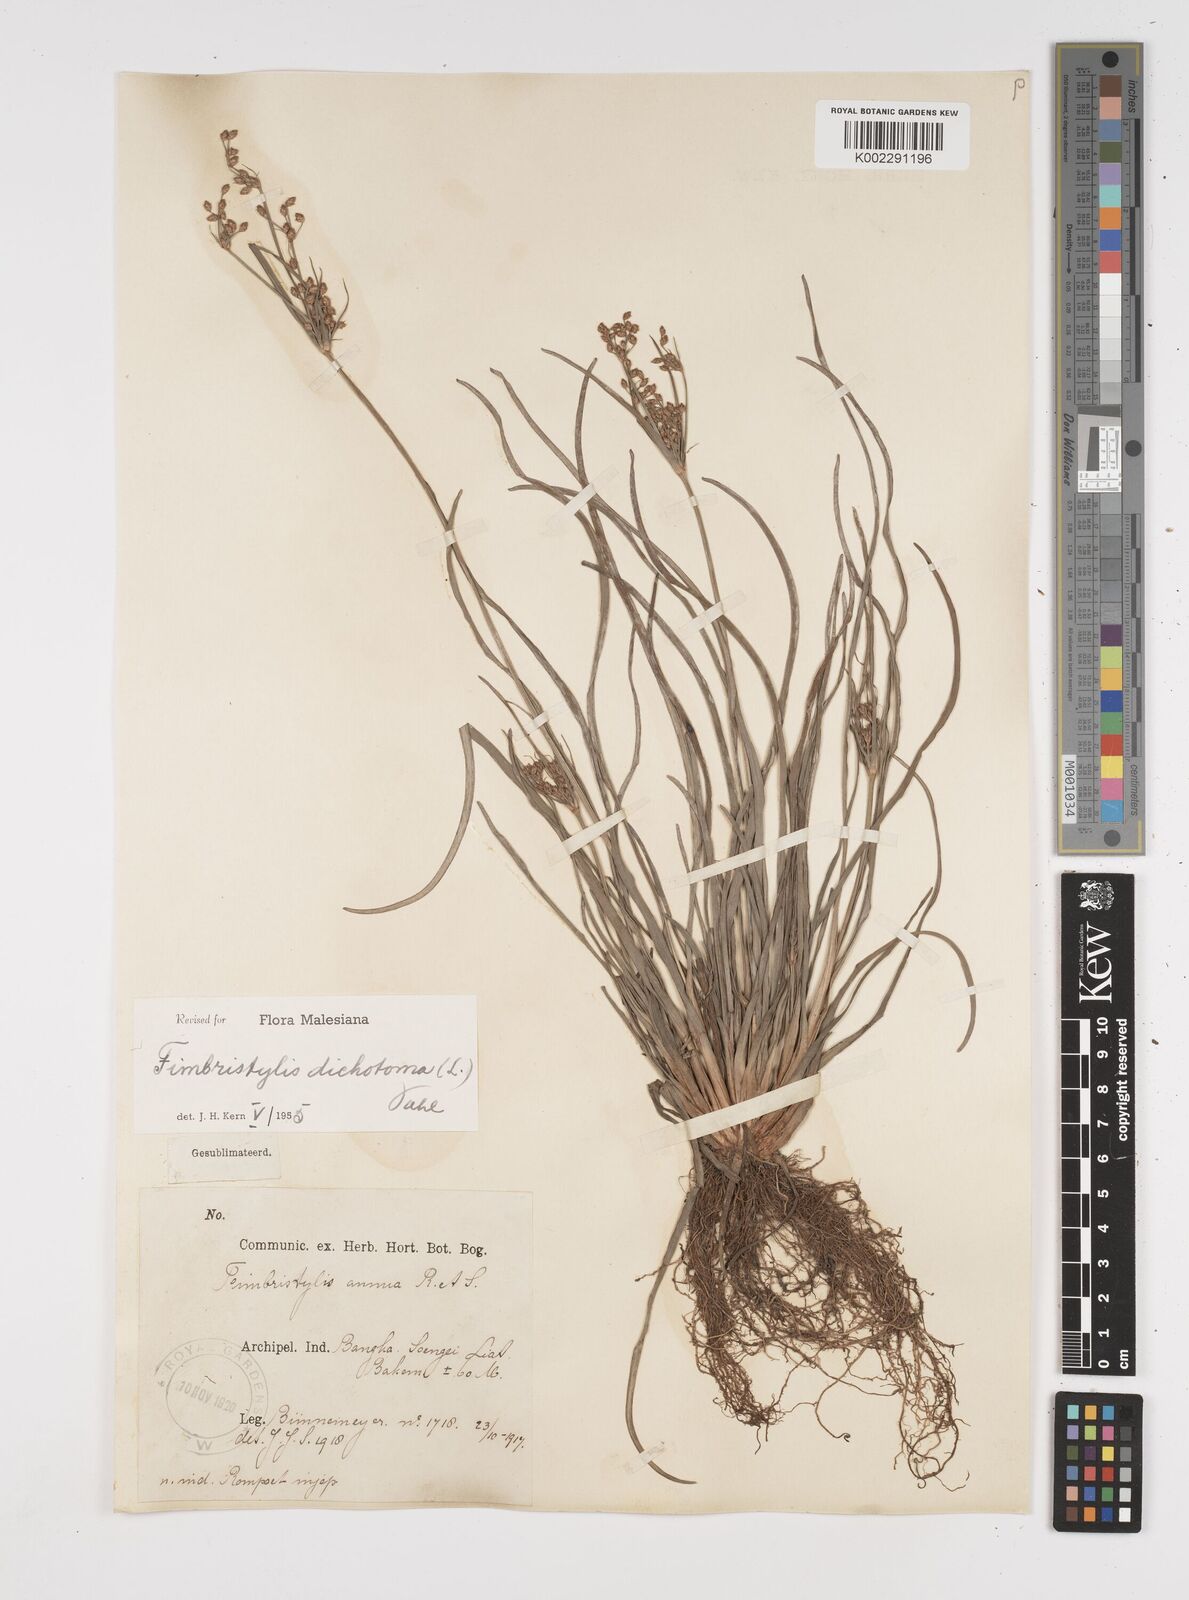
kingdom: Plantae
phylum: Tracheophyta
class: Liliopsida
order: Poales
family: Cyperaceae
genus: Fimbristylis
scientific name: Fimbristylis dichotoma
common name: Forked fimbry
